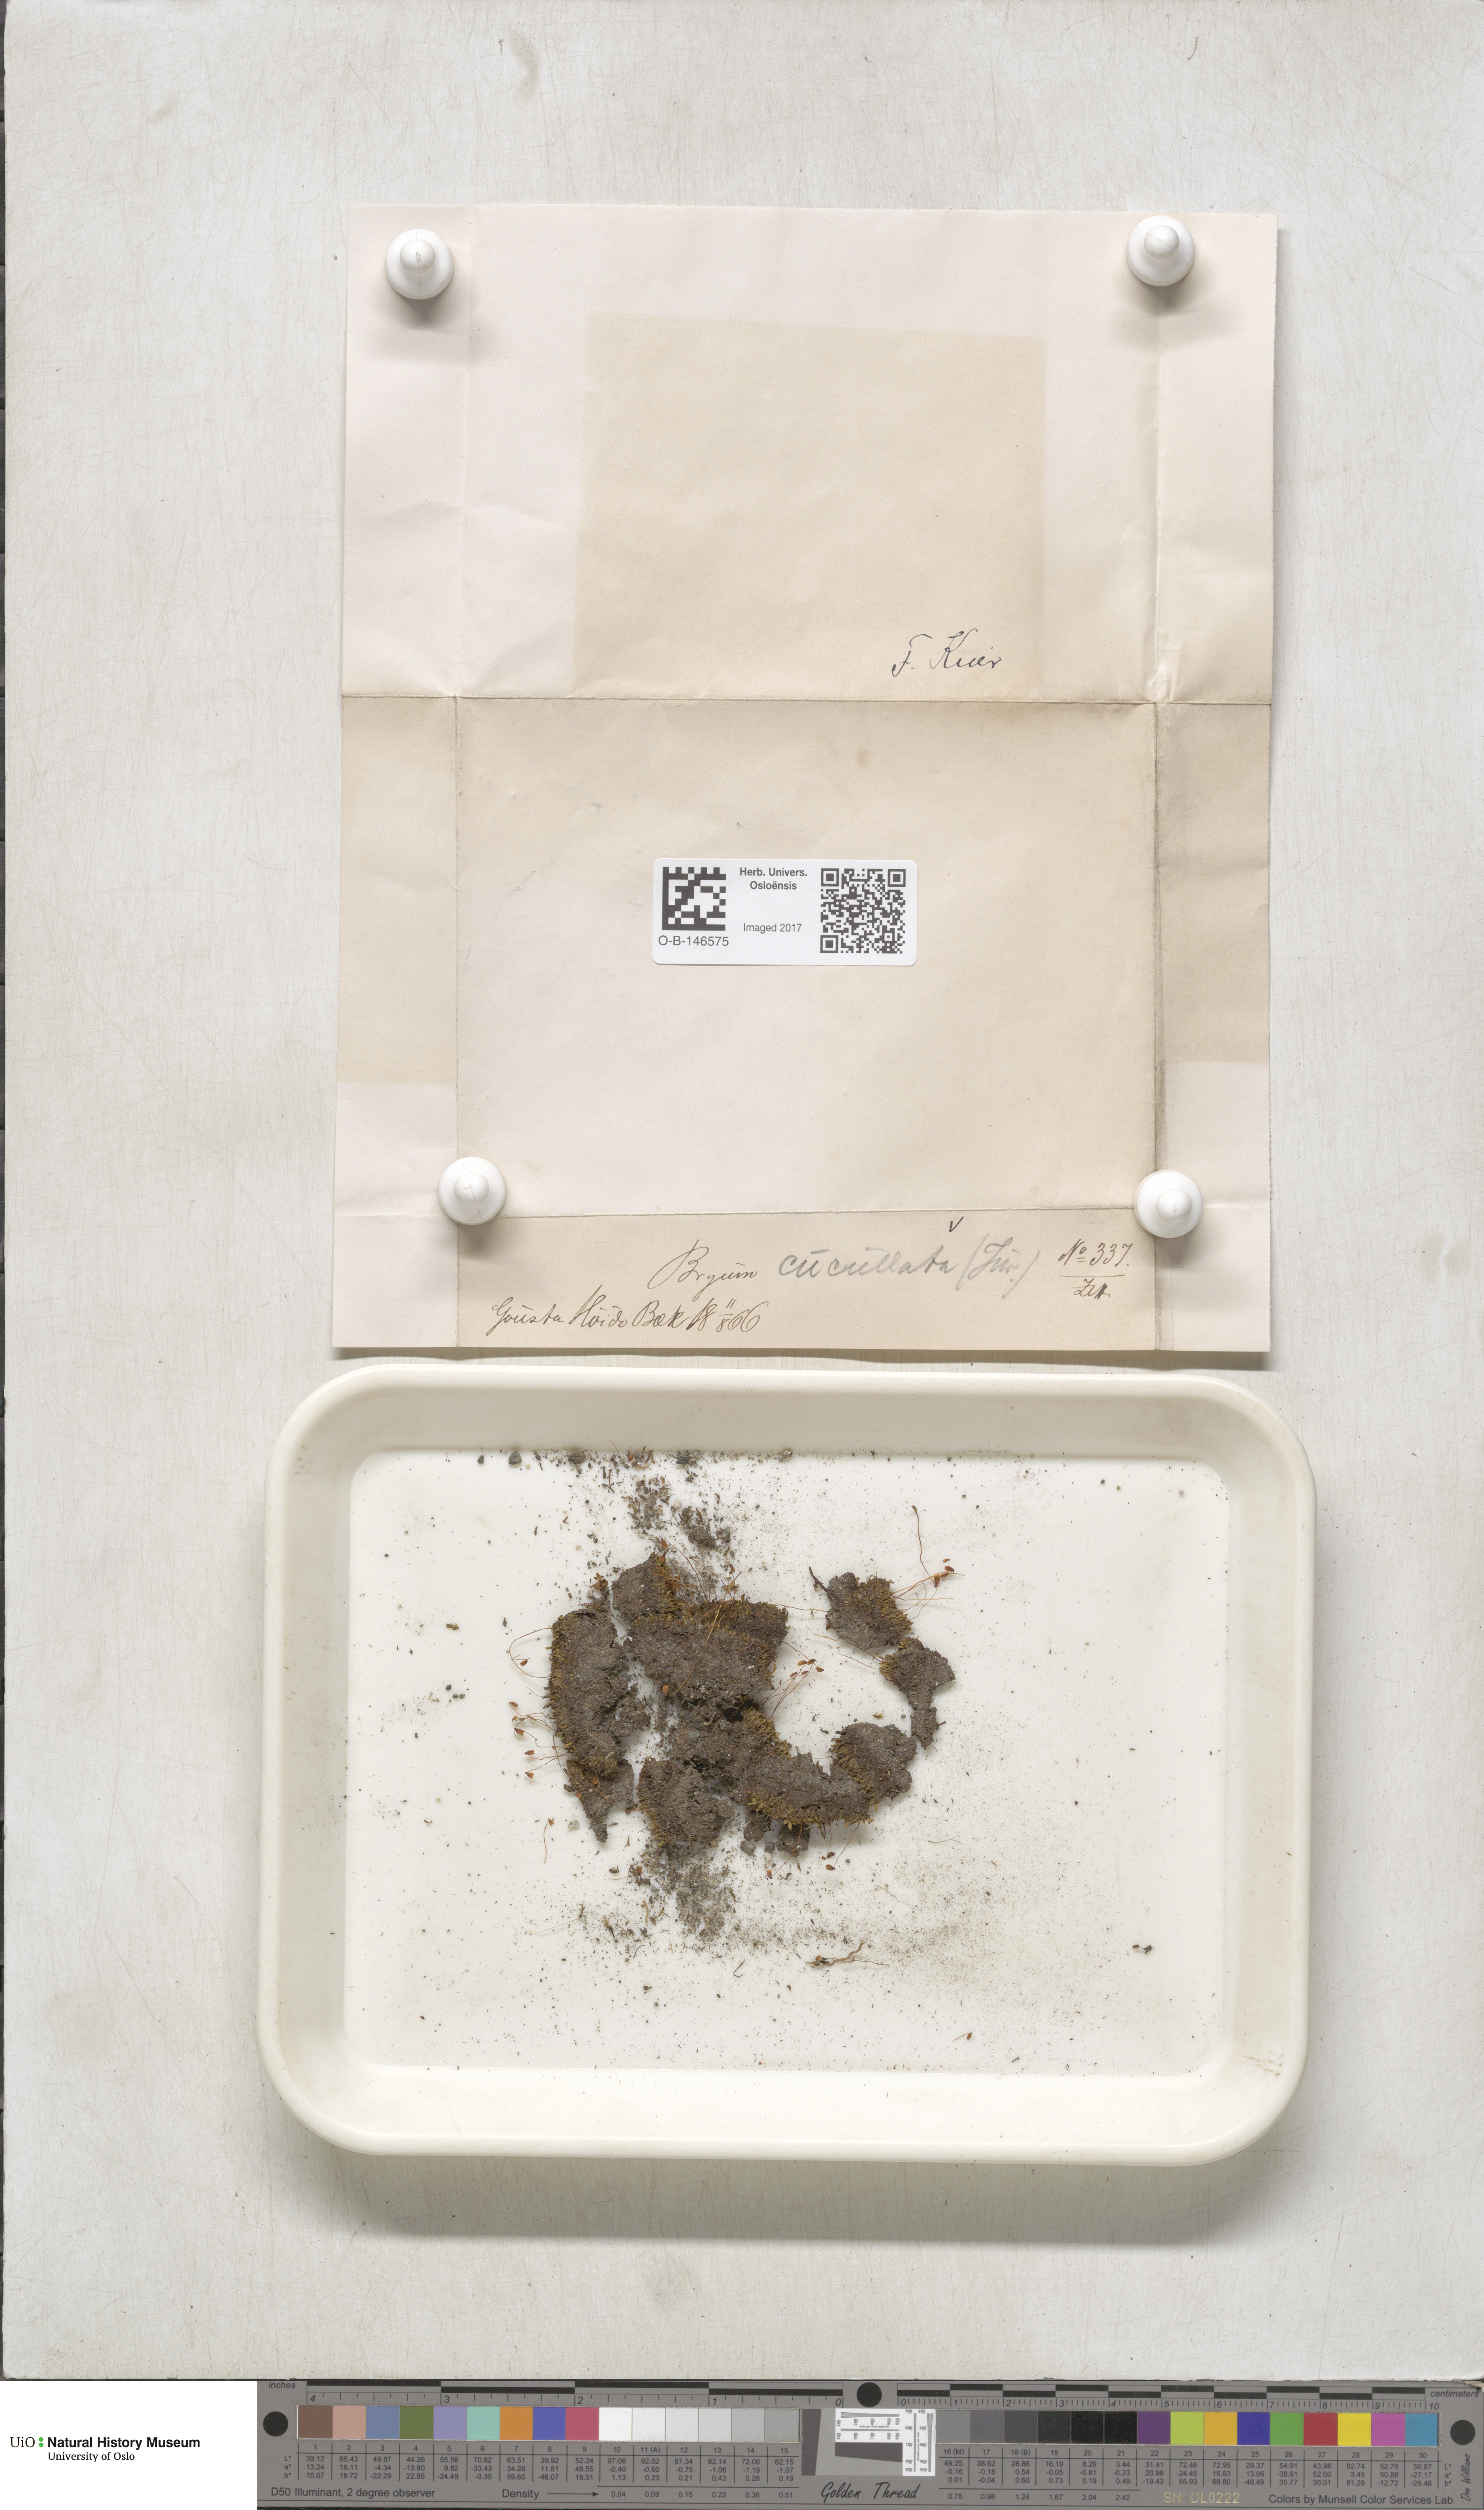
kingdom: Plantae
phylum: Bryophyta
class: Bryopsida
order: Bryales
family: Mniaceae
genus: Pohlia
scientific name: Pohlia obtusifolia
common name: Blunt nodding moss
